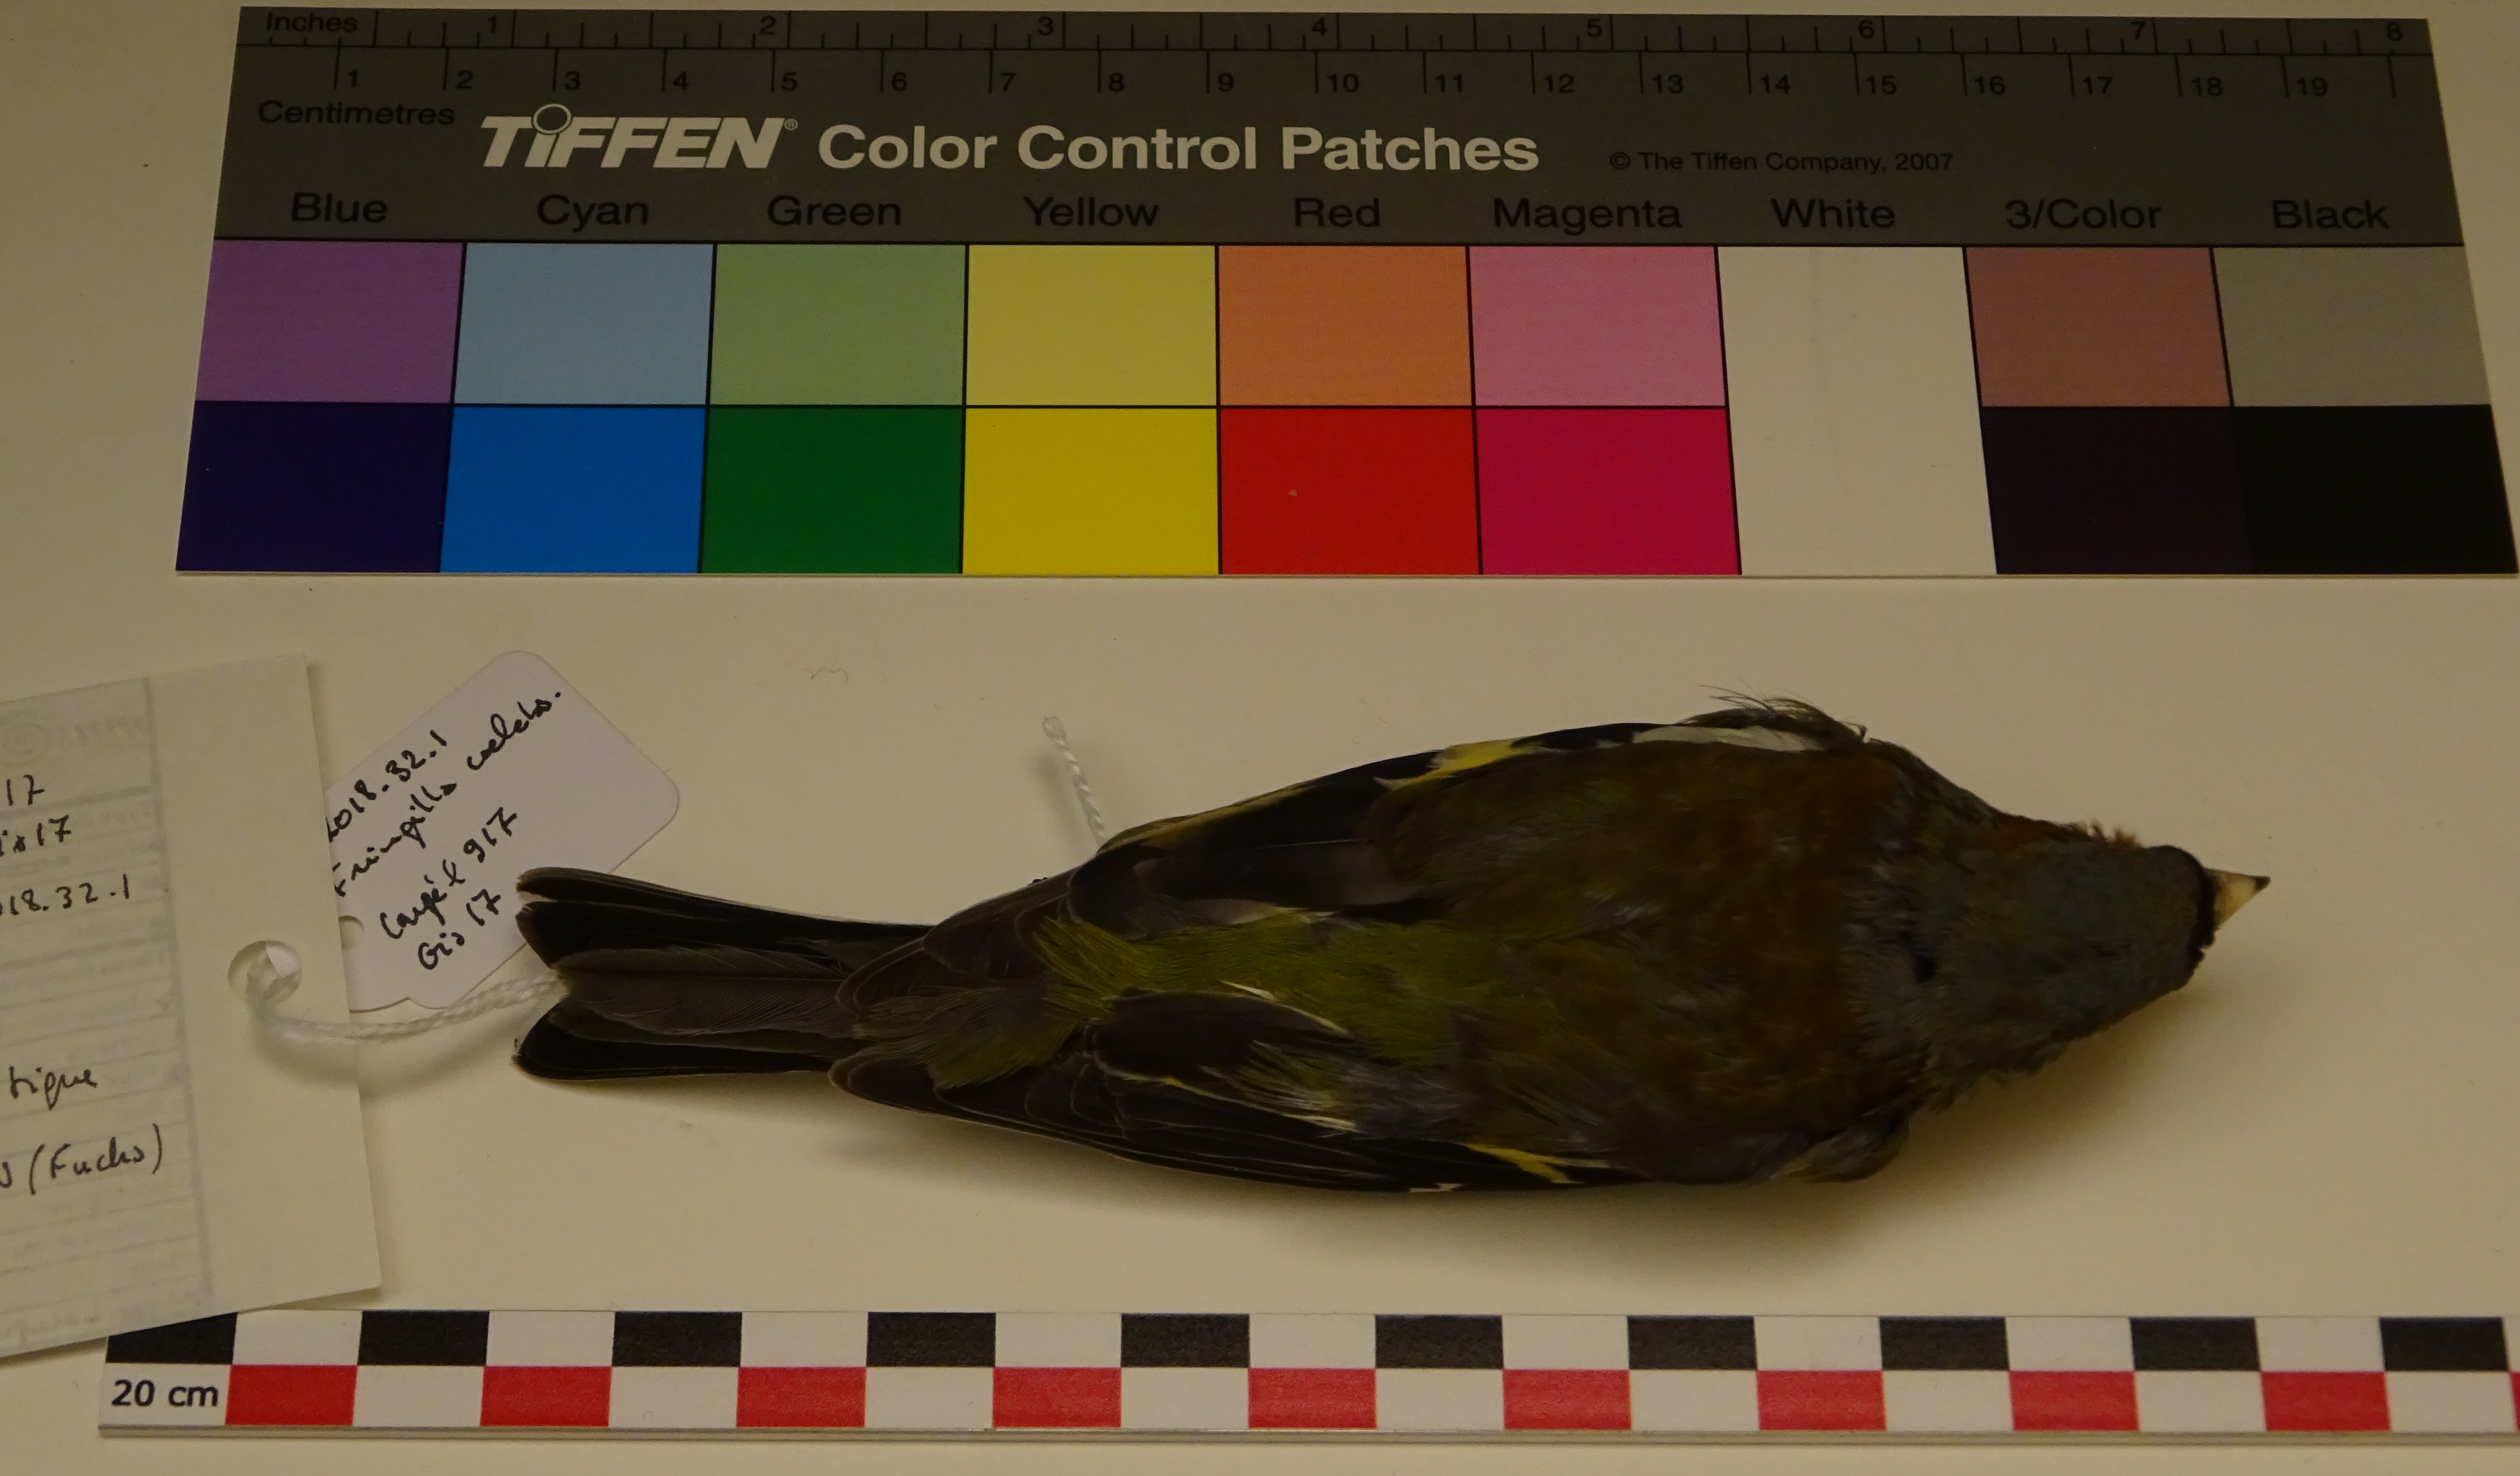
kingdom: Animalia
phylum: Chordata
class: Aves
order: Passeriformes
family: Fringillidae
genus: Fringilla
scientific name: Fringilla coelebs
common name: Common chaffinch
